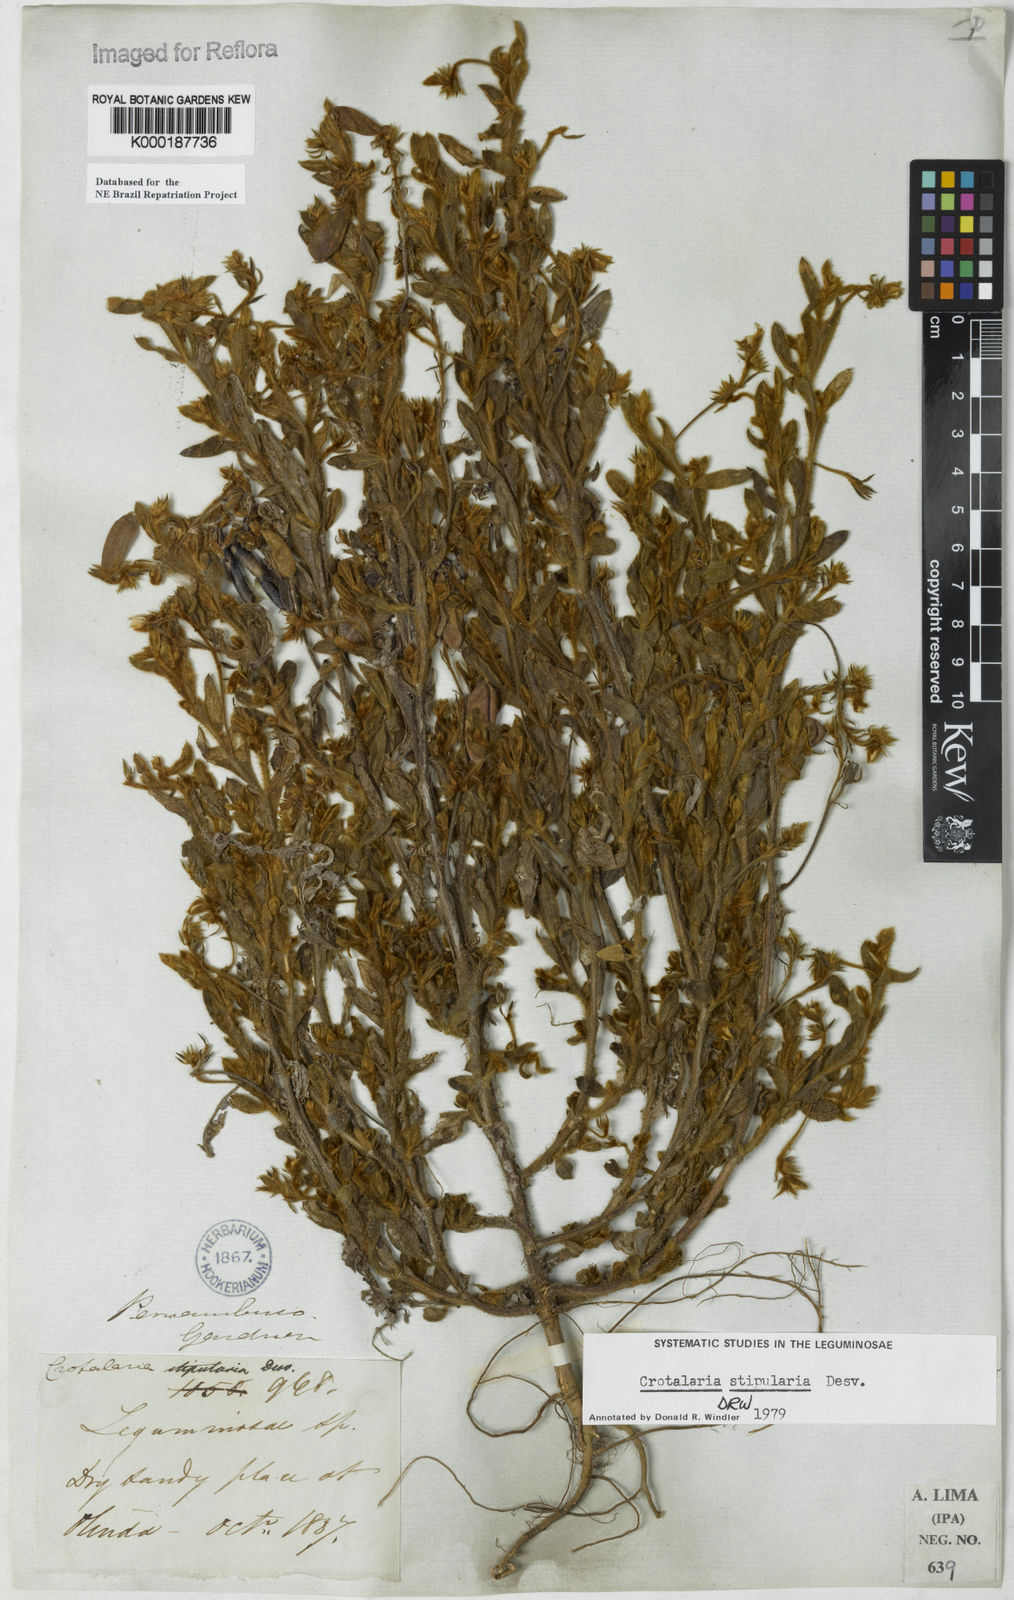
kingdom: Plantae
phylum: Tracheophyta
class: Magnoliopsida
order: Fabales
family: Fabaceae
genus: Crotalaria
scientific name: Crotalaria stipularia
